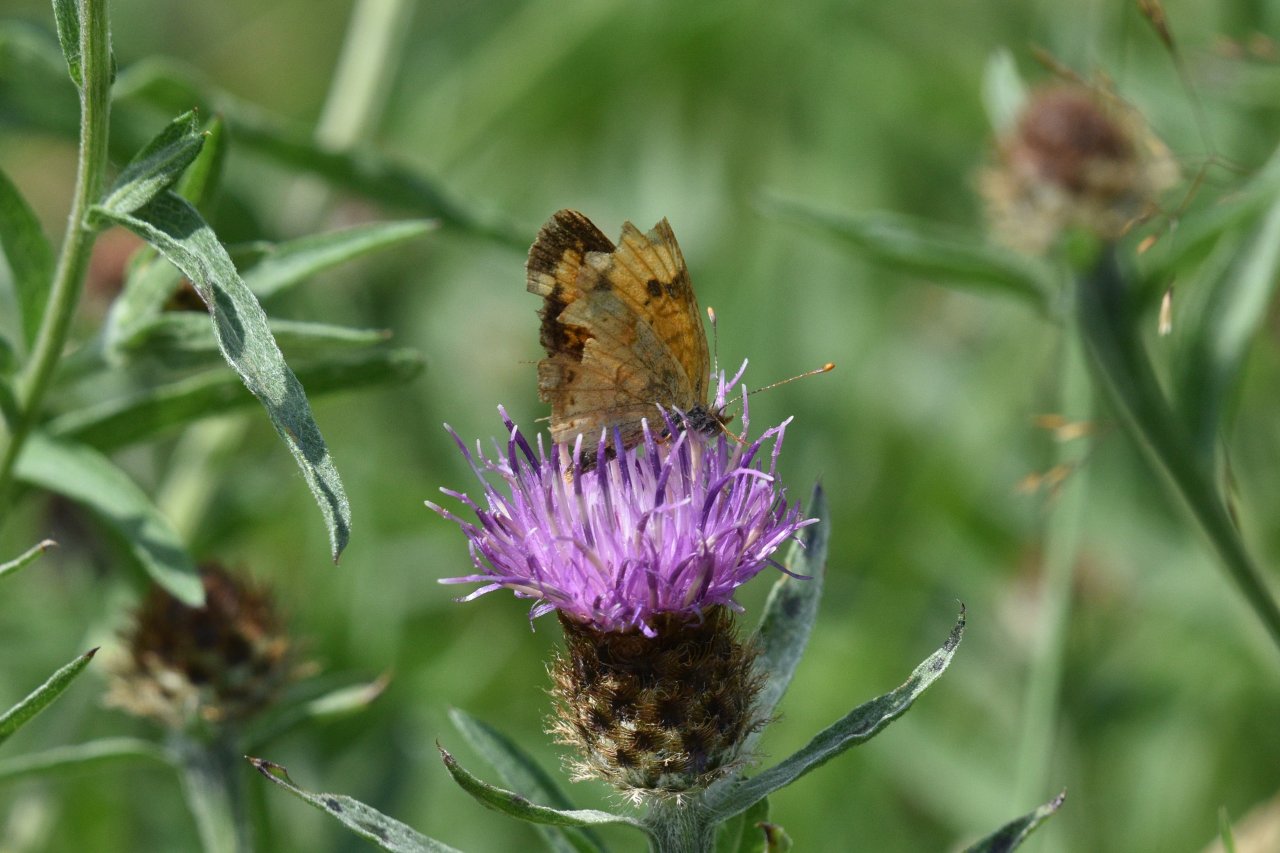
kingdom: Animalia
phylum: Arthropoda
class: Insecta
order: Lepidoptera
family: Nymphalidae
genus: Phyciodes
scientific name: Phyciodes tharos
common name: Northern Crescent
